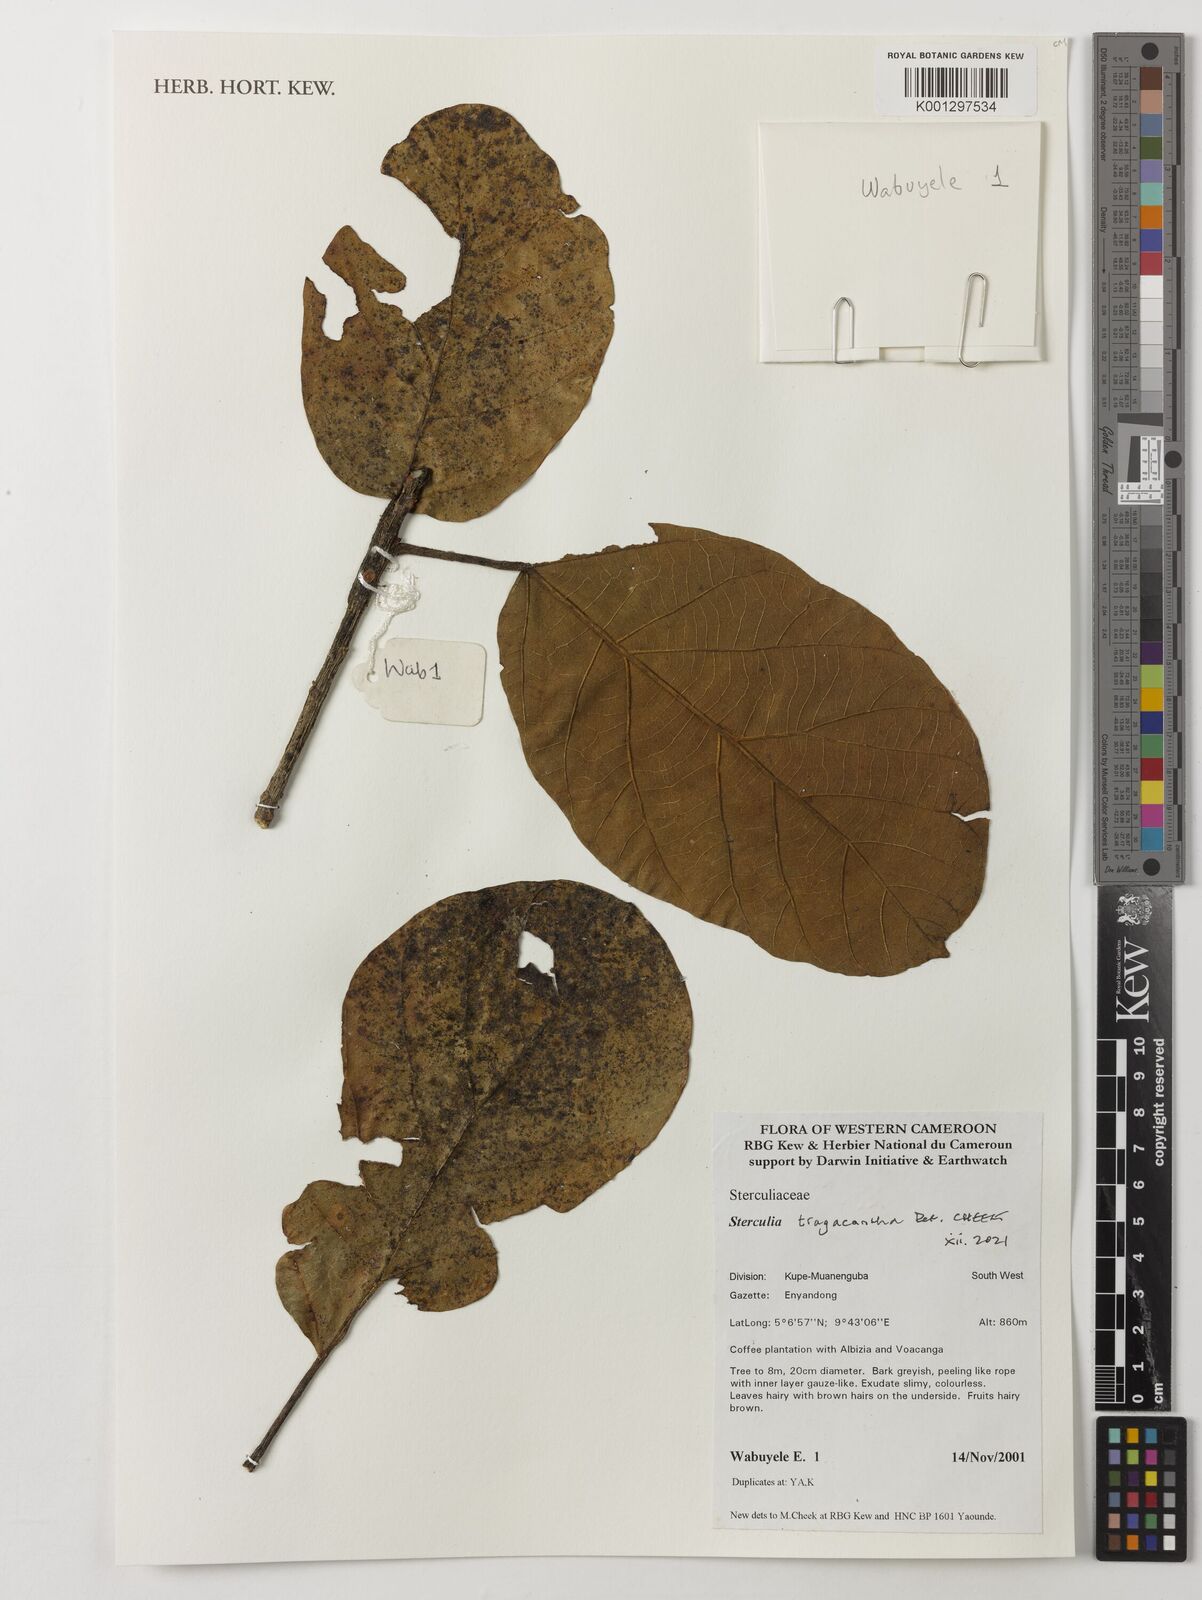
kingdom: Plantae
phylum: Tracheophyta
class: Magnoliopsida
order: Malvales
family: Malvaceae
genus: Sterculia
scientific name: Sterculia tragacantha
